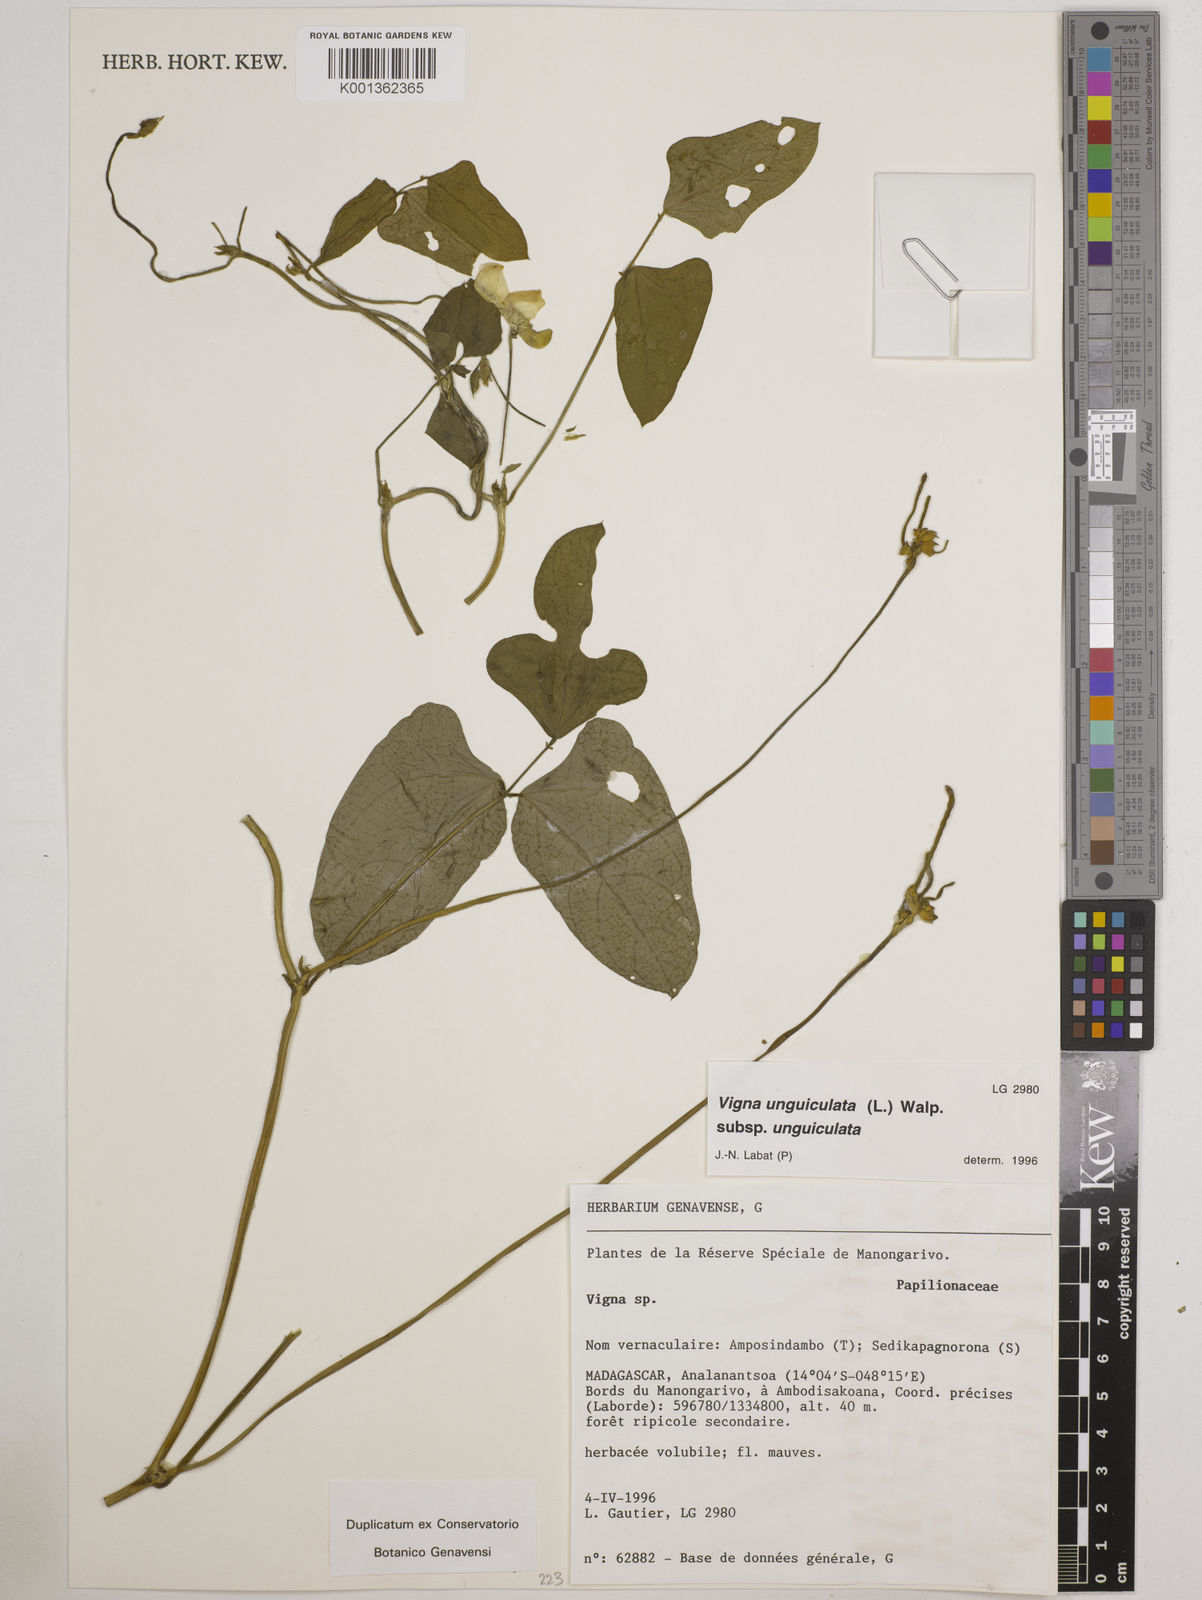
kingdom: Plantae
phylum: Tracheophyta
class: Magnoliopsida
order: Fabales
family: Fabaceae
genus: Vigna
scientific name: Vigna
